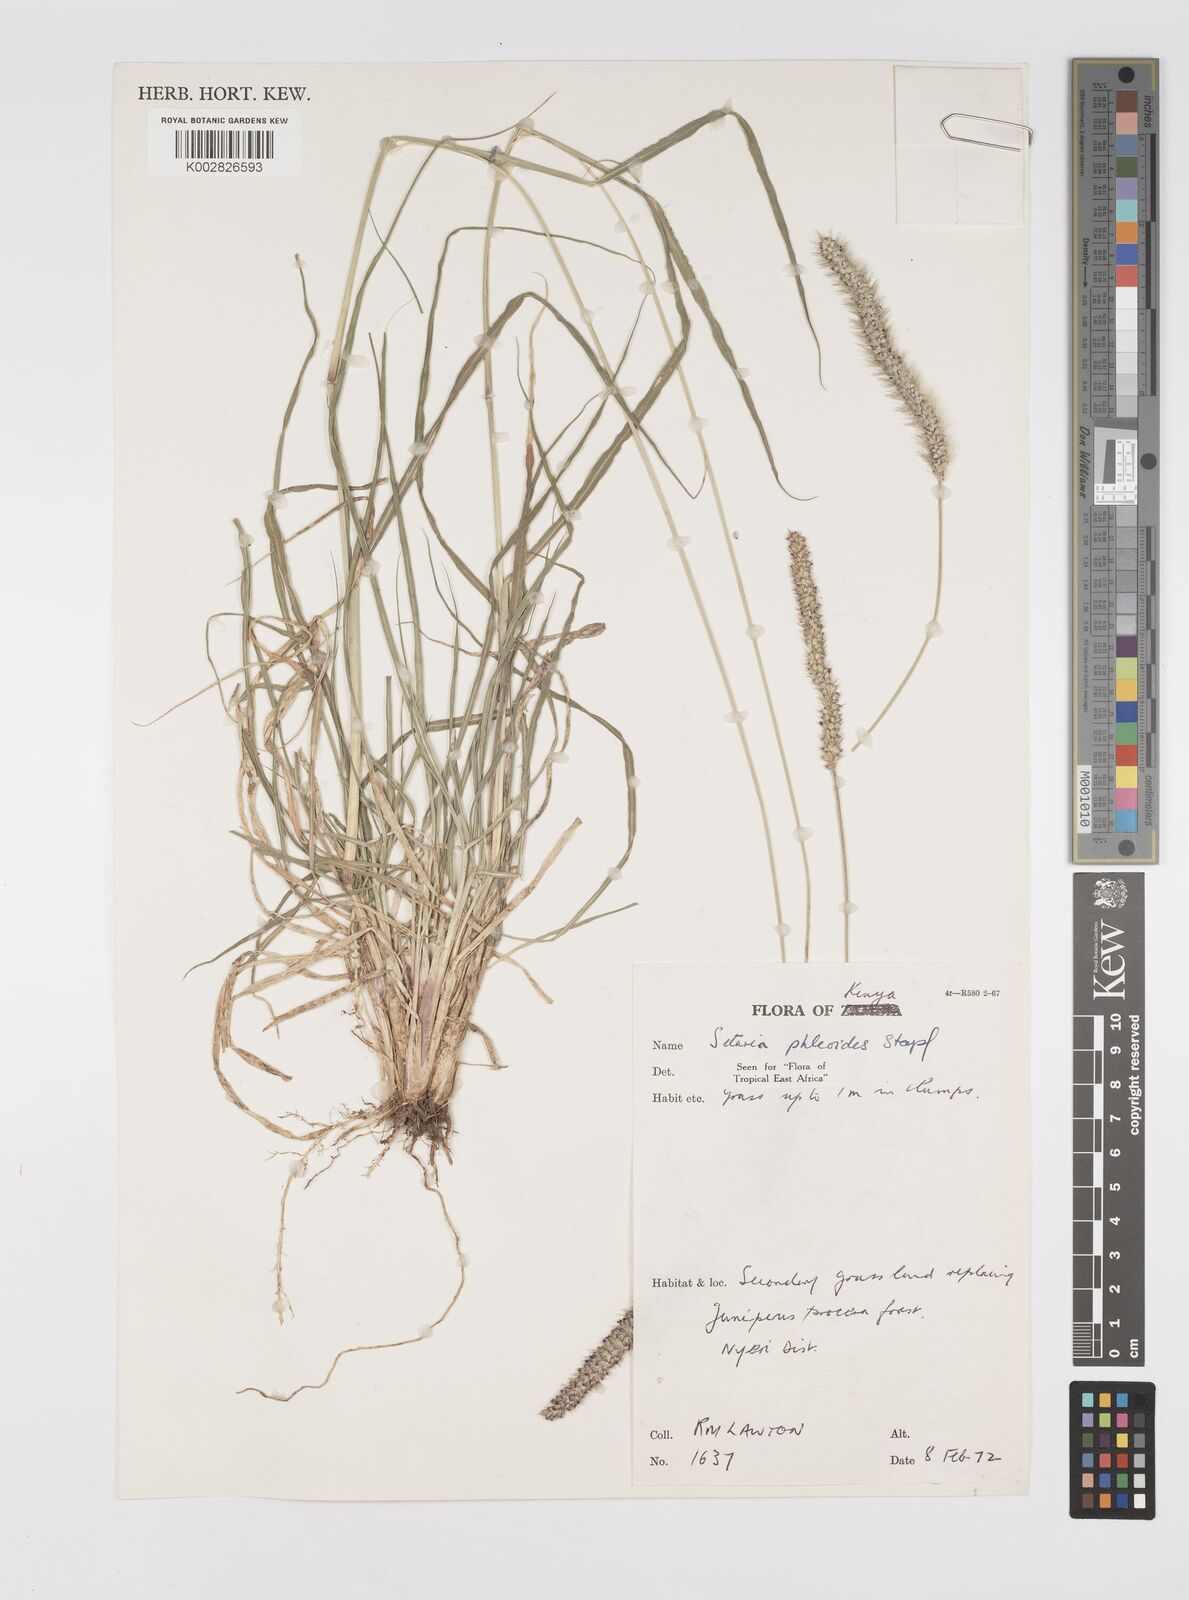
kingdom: Plantae
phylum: Tracheophyta
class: Liliopsida
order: Poales
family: Poaceae
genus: Setaria
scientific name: Setaria incrassata
